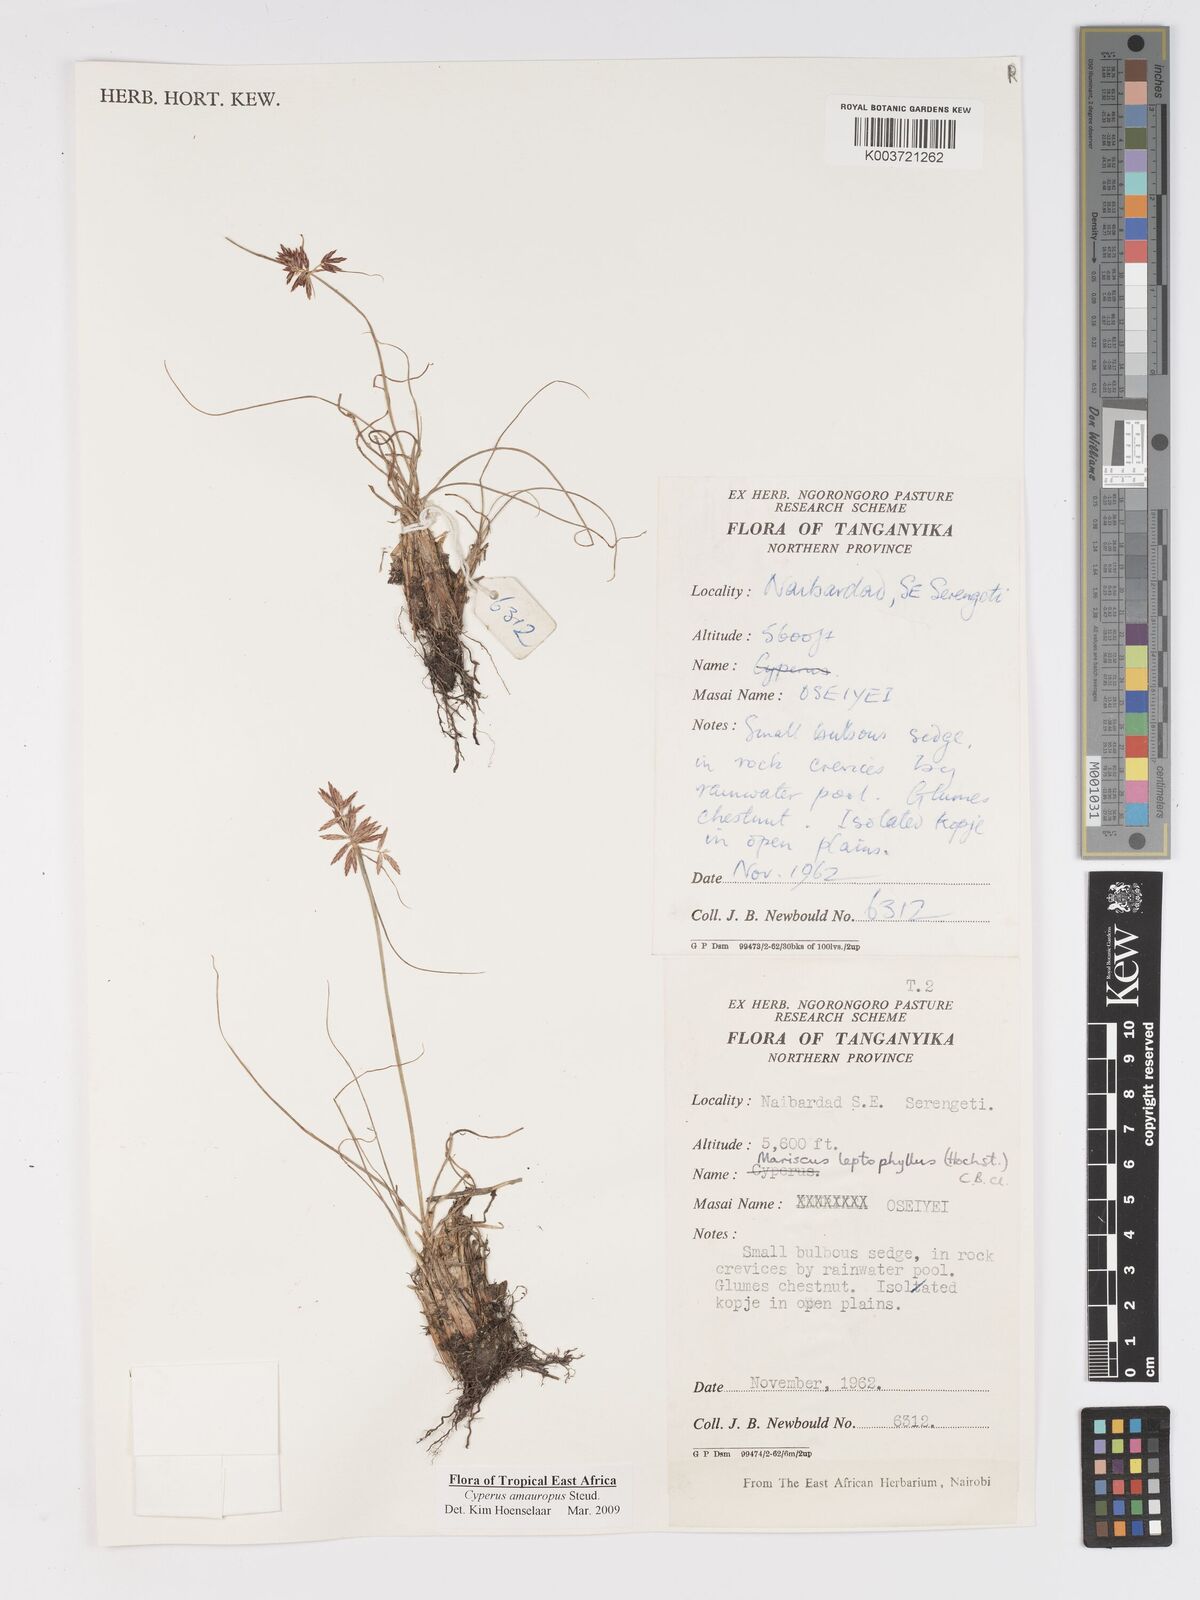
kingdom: Plantae
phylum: Tracheophyta
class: Liliopsida
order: Poales
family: Cyperaceae
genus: Cyperus
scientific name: Cyperus amauropus
